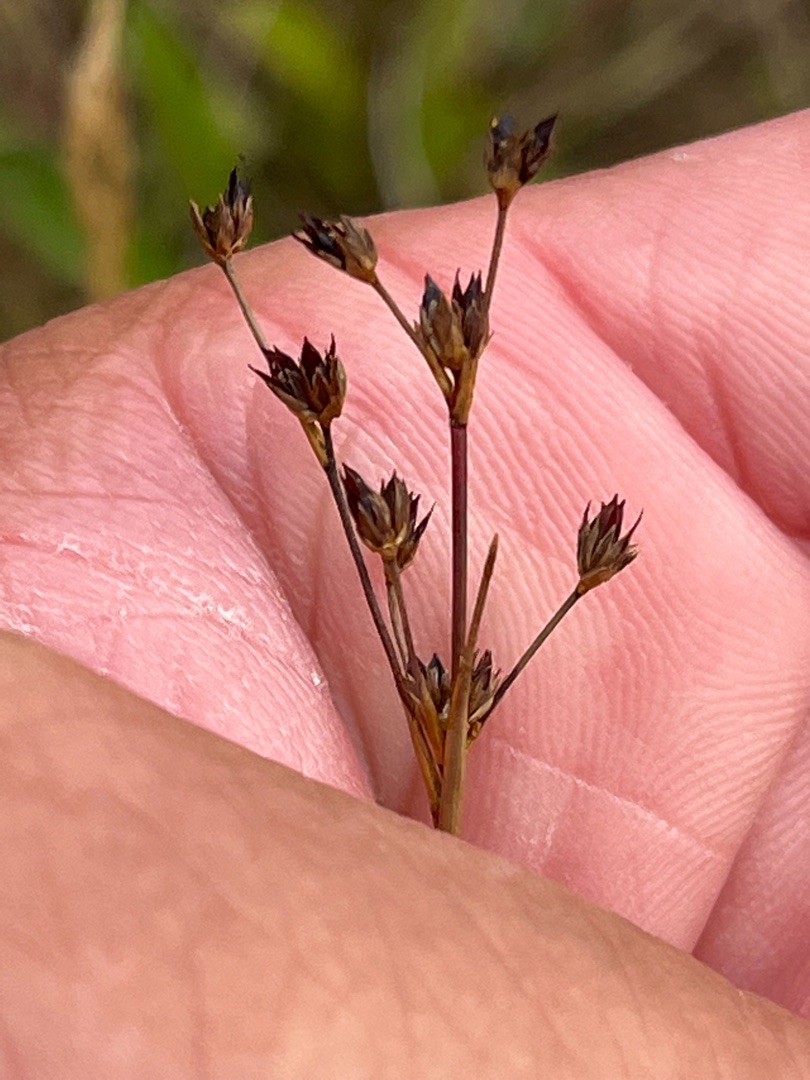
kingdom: Plantae
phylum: Tracheophyta
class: Liliopsida
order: Poales
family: Juncaceae
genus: Juncus
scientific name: Juncus articulatus
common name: Glanskapslet siv
